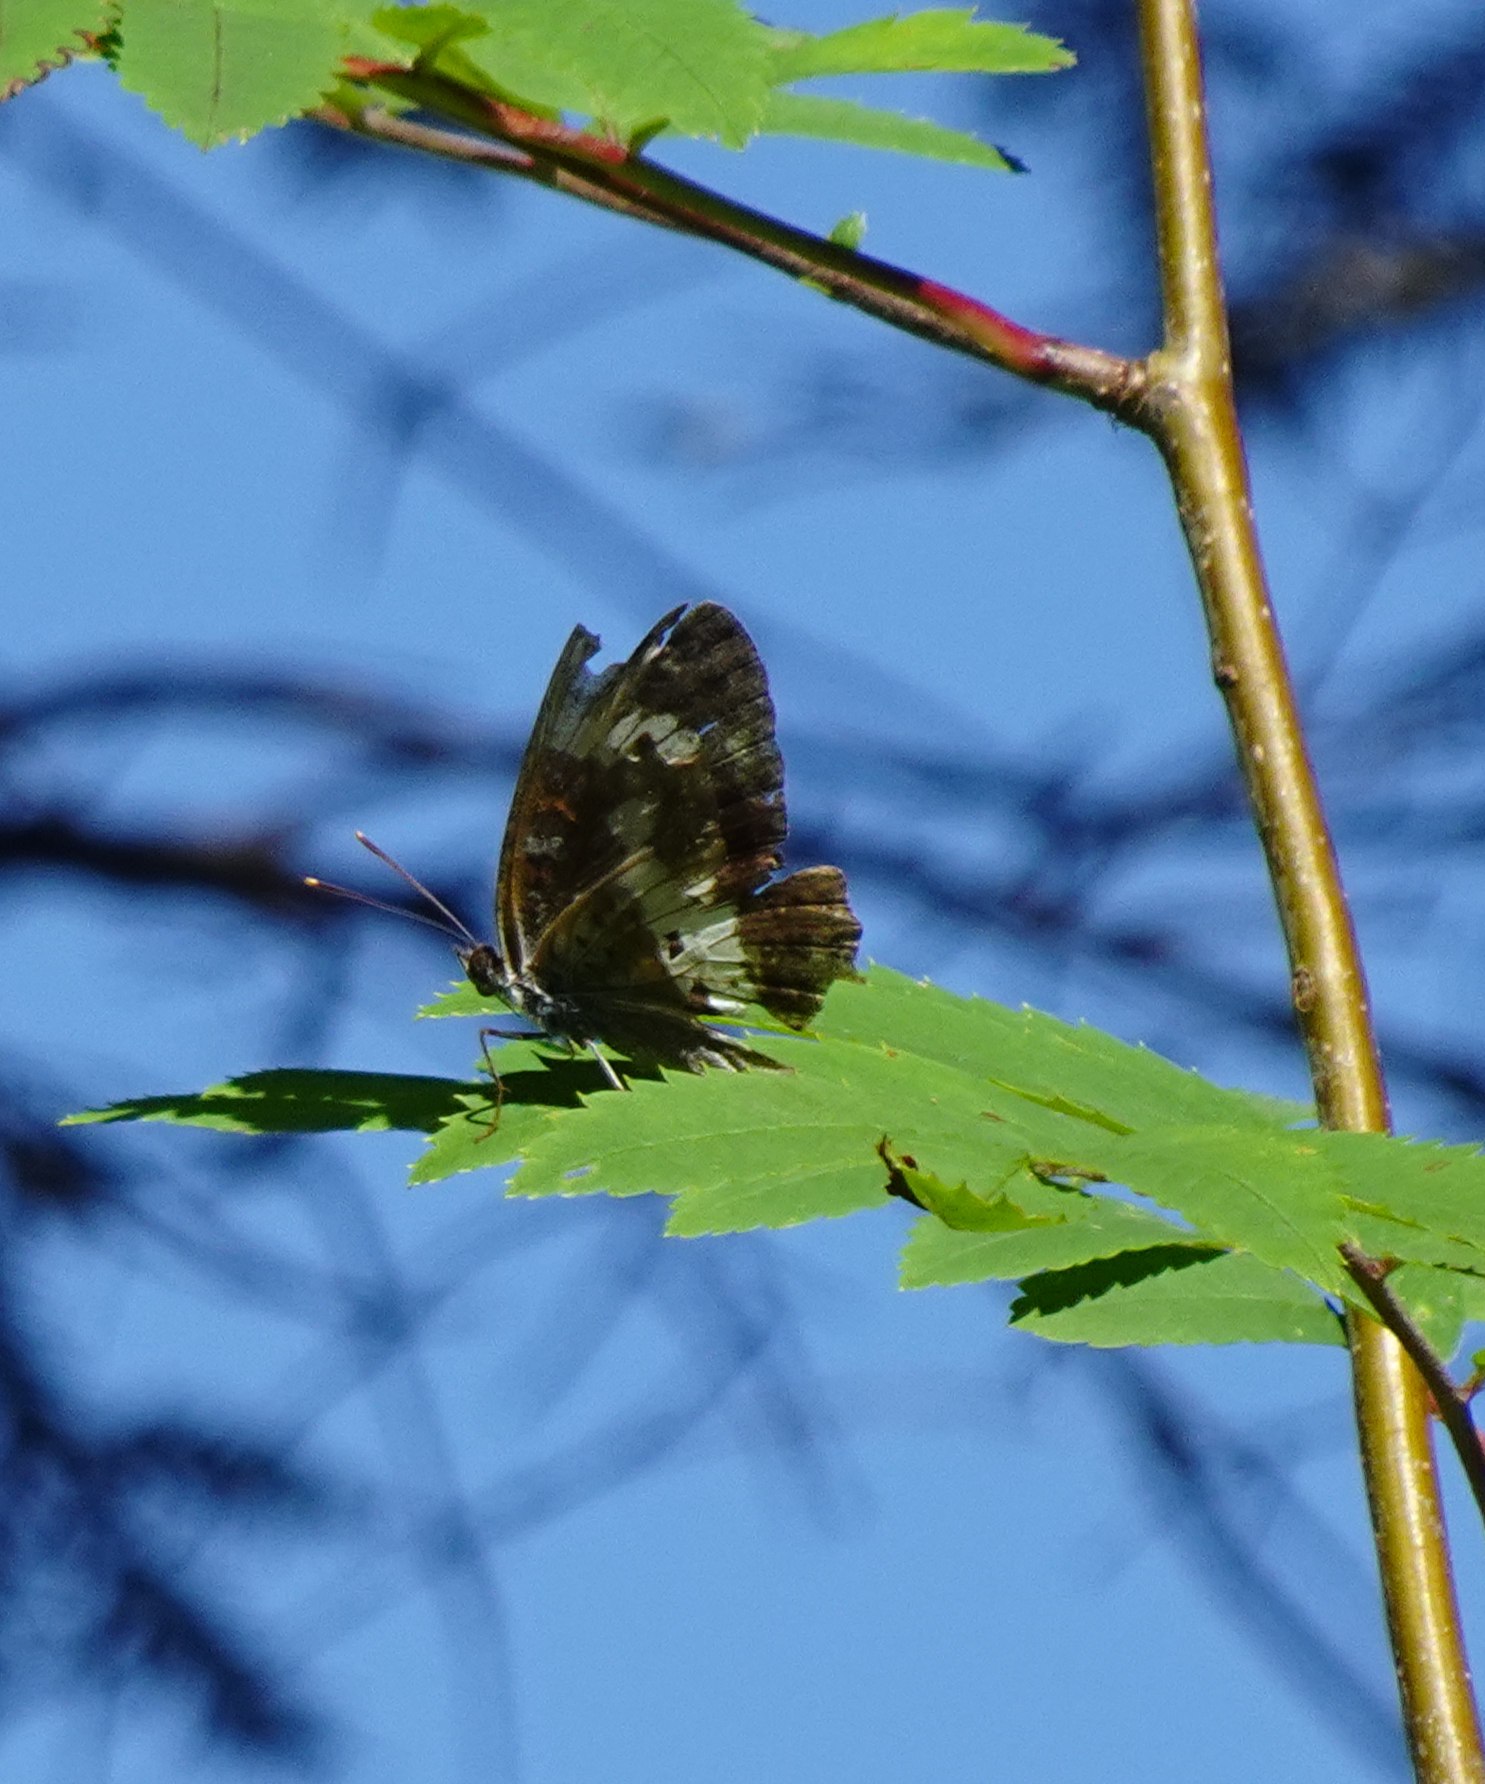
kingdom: Animalia
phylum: Arthropoda
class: Insecta
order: Lepidoptera
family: Nymphalidae
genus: Ladoga
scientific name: Ladoga camilla
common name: Hvid admiral
